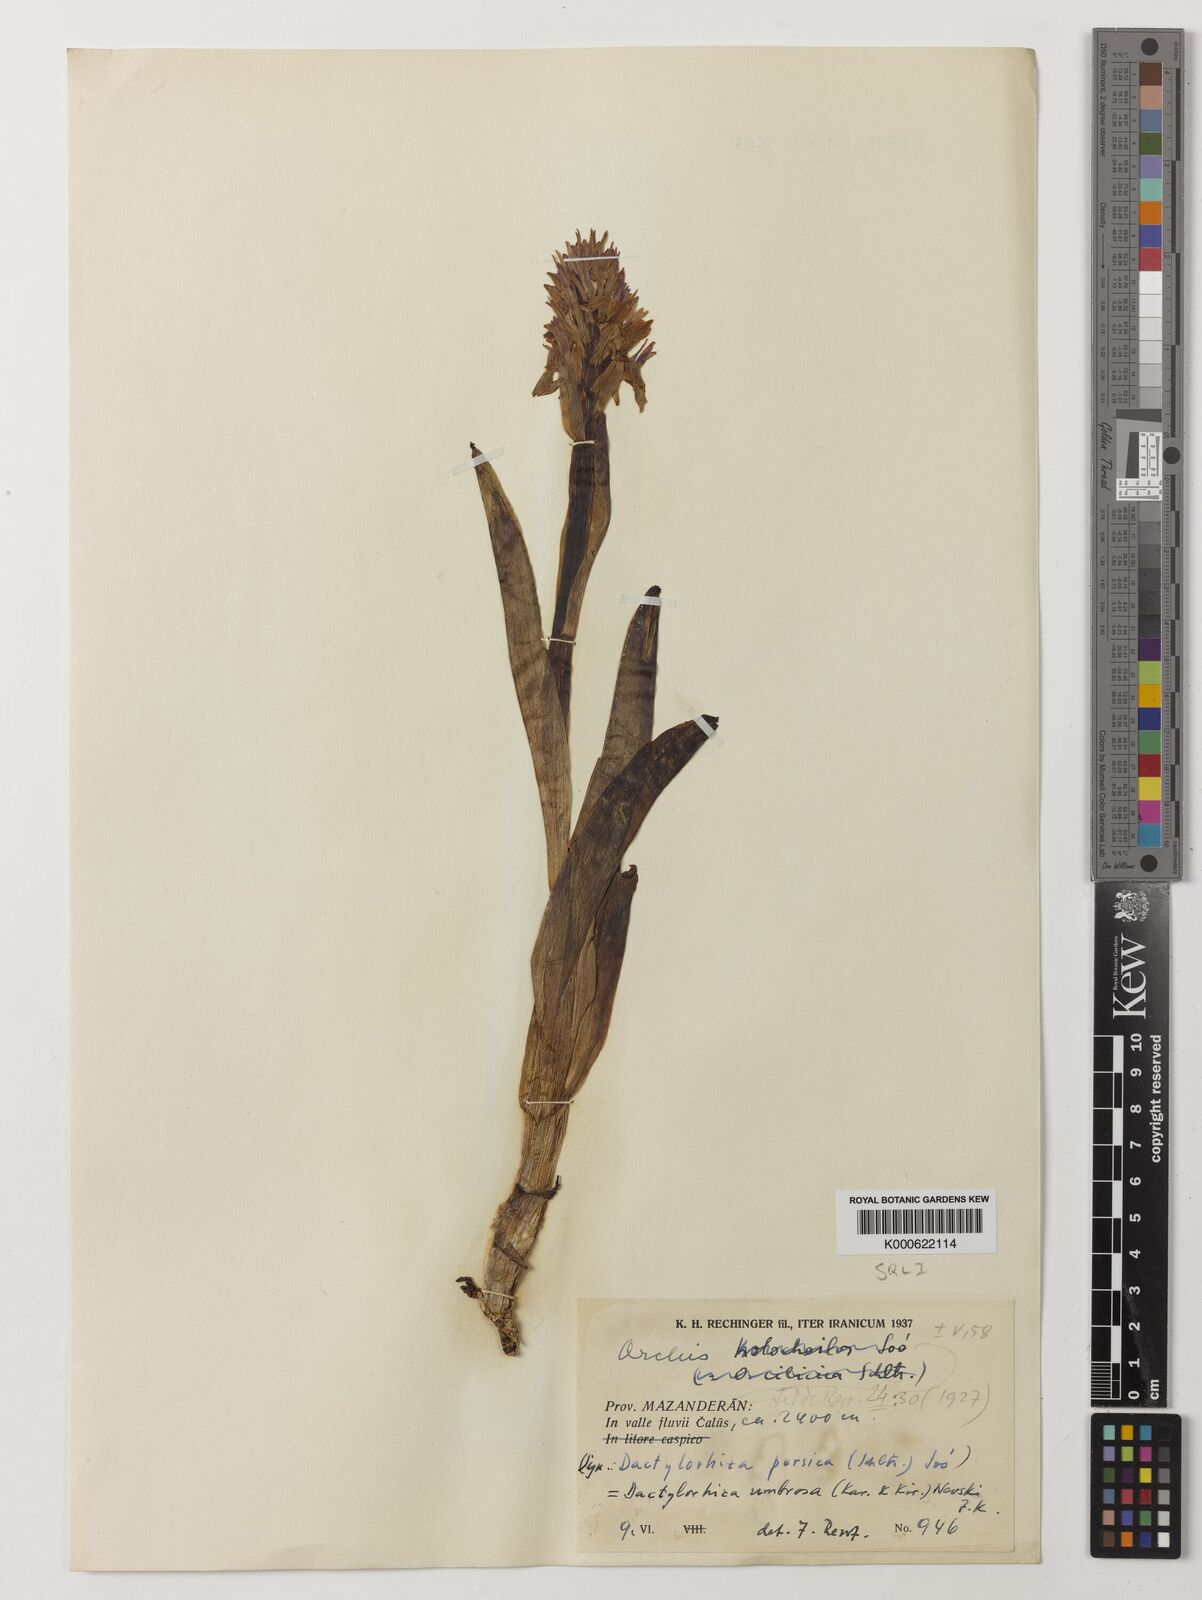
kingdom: Plantae
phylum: Tracheophyta
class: Liliopsida
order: Asparagales
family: Orchidaceae
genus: Dactylorhiza
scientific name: Dactylorhiza
